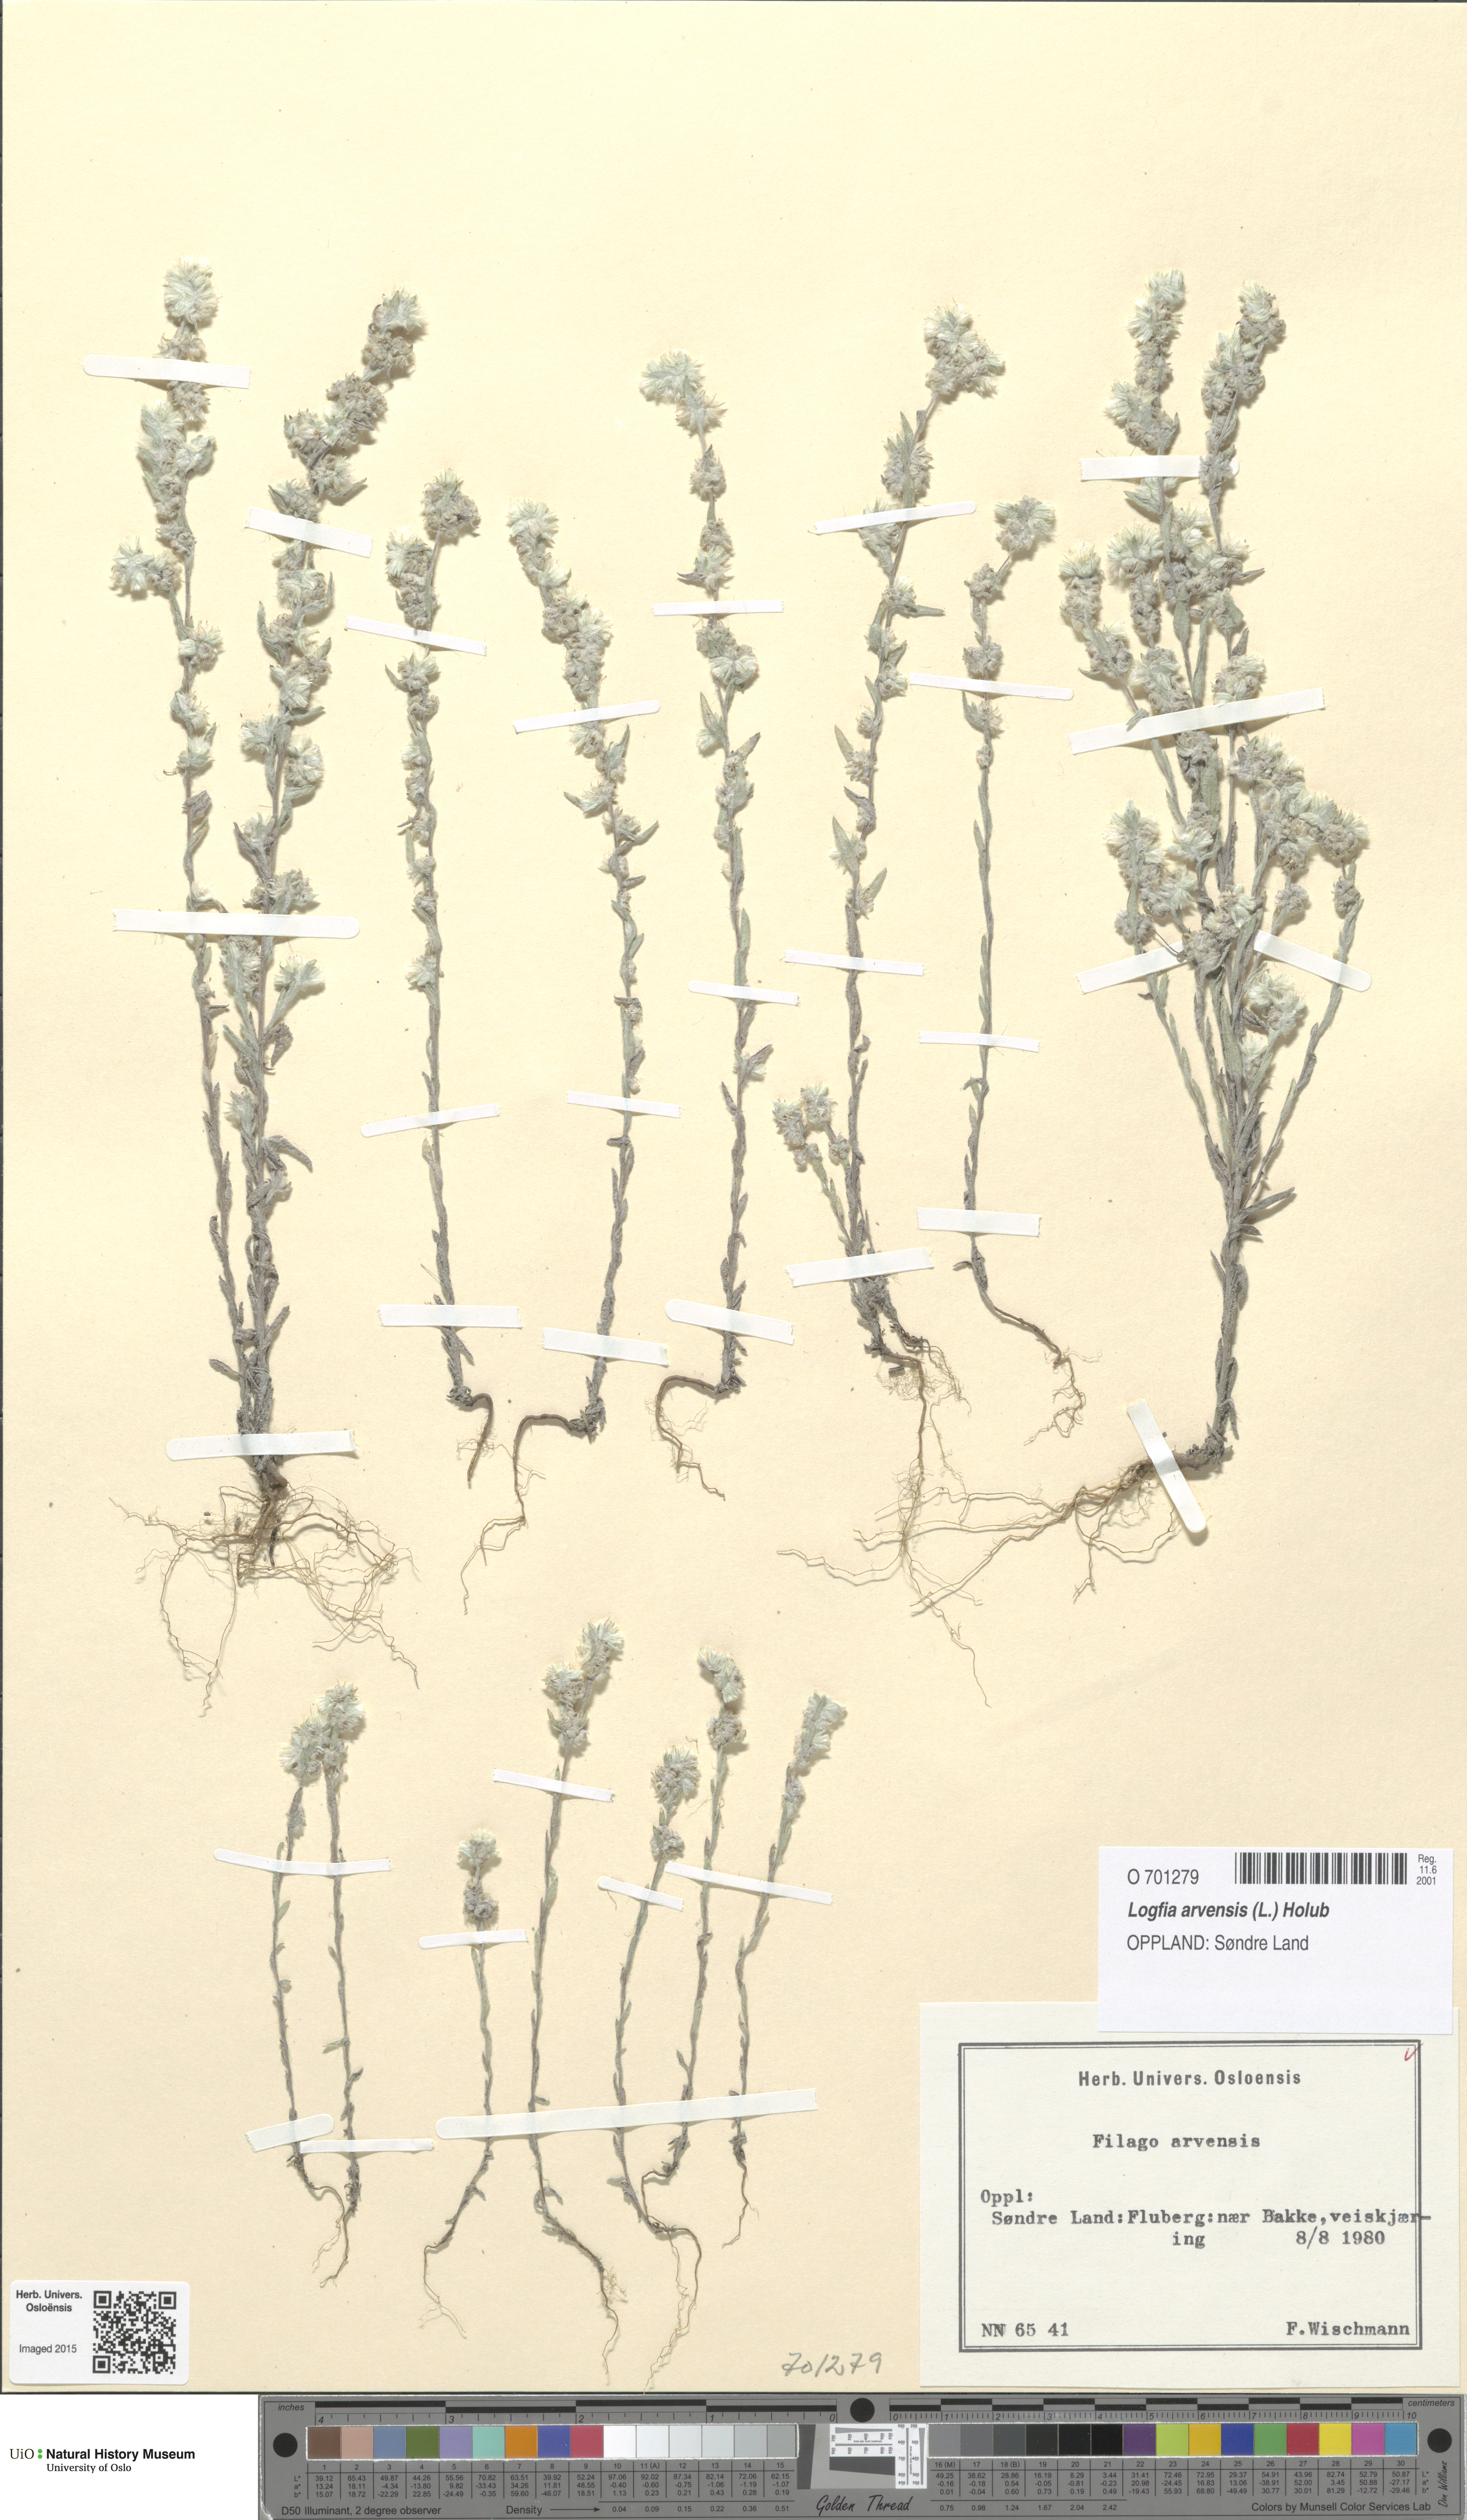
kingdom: Plantae
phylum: Tracheophyta
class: Magnoliopsida
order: Asterales
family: Asteraceae
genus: Filago
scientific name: Filago arvensis
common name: Field cudweed
